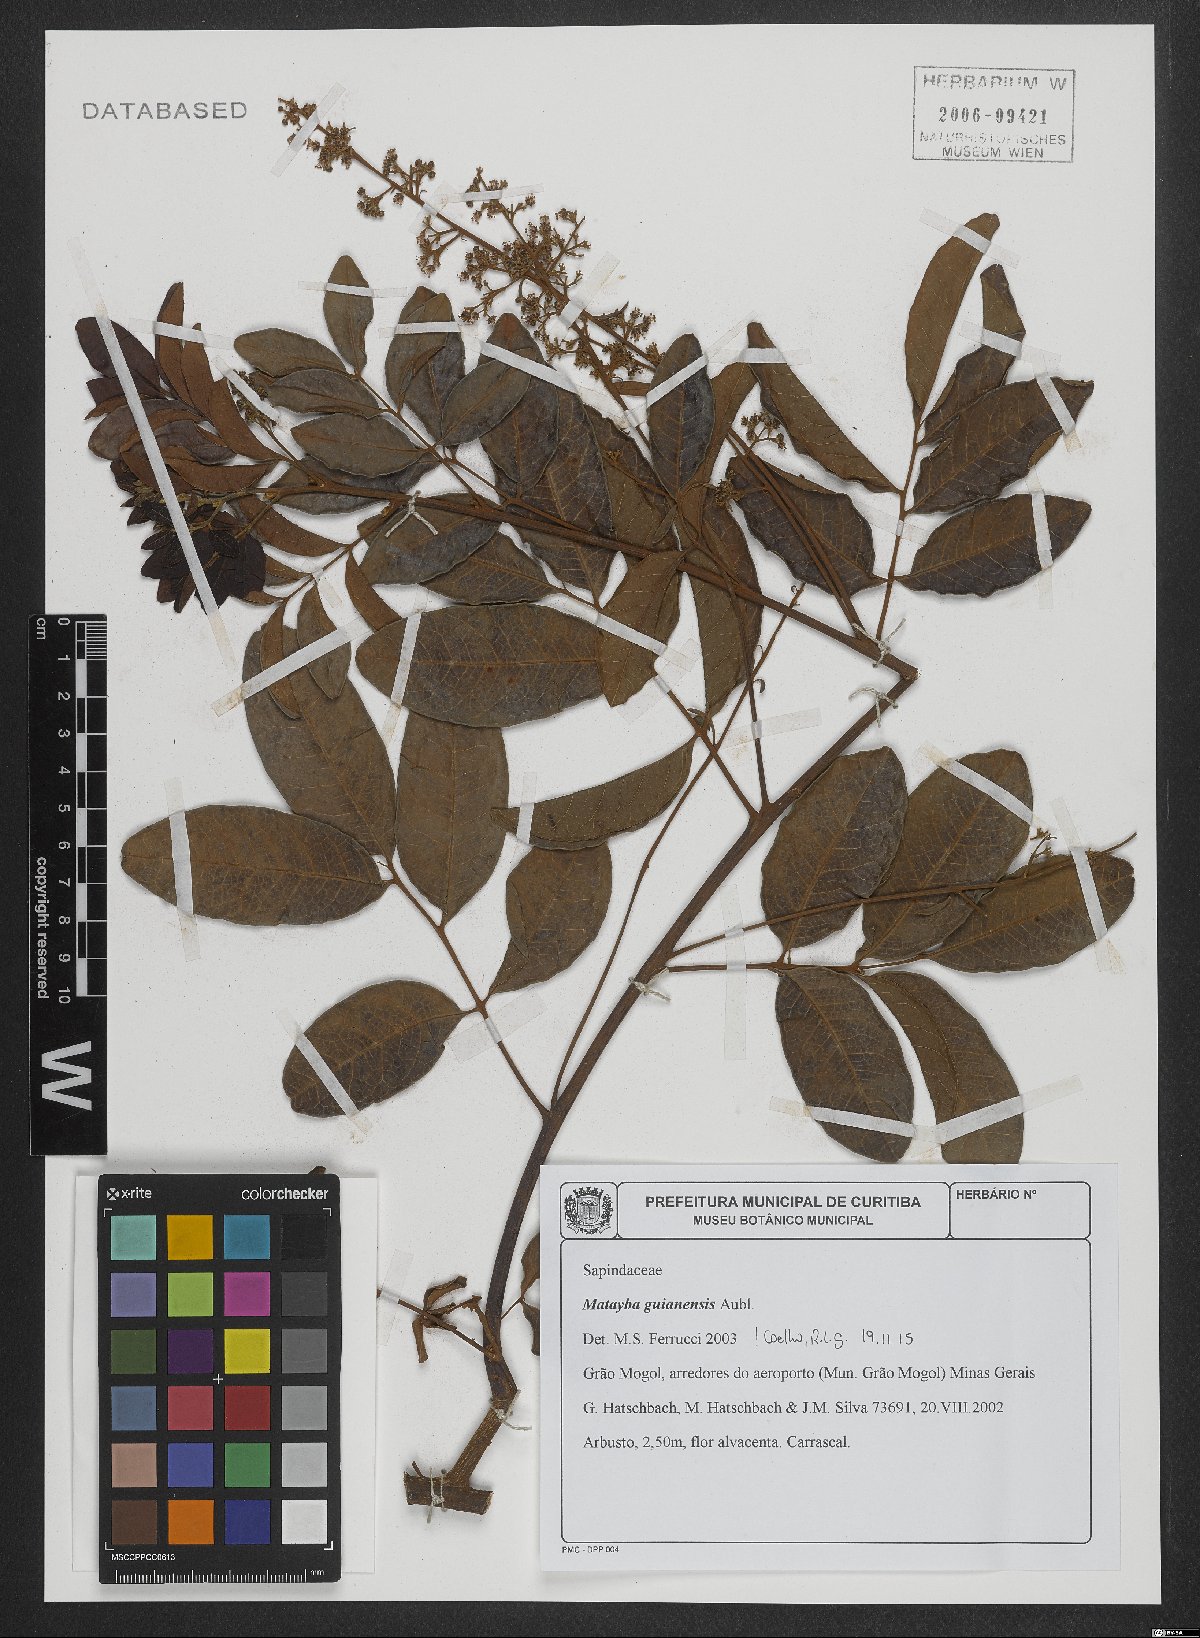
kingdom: Plantae
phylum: Tracheophyta
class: Magnoliopsida
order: Sapindales
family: Sapindaceae
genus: Matayba
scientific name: Matayba guianensis
